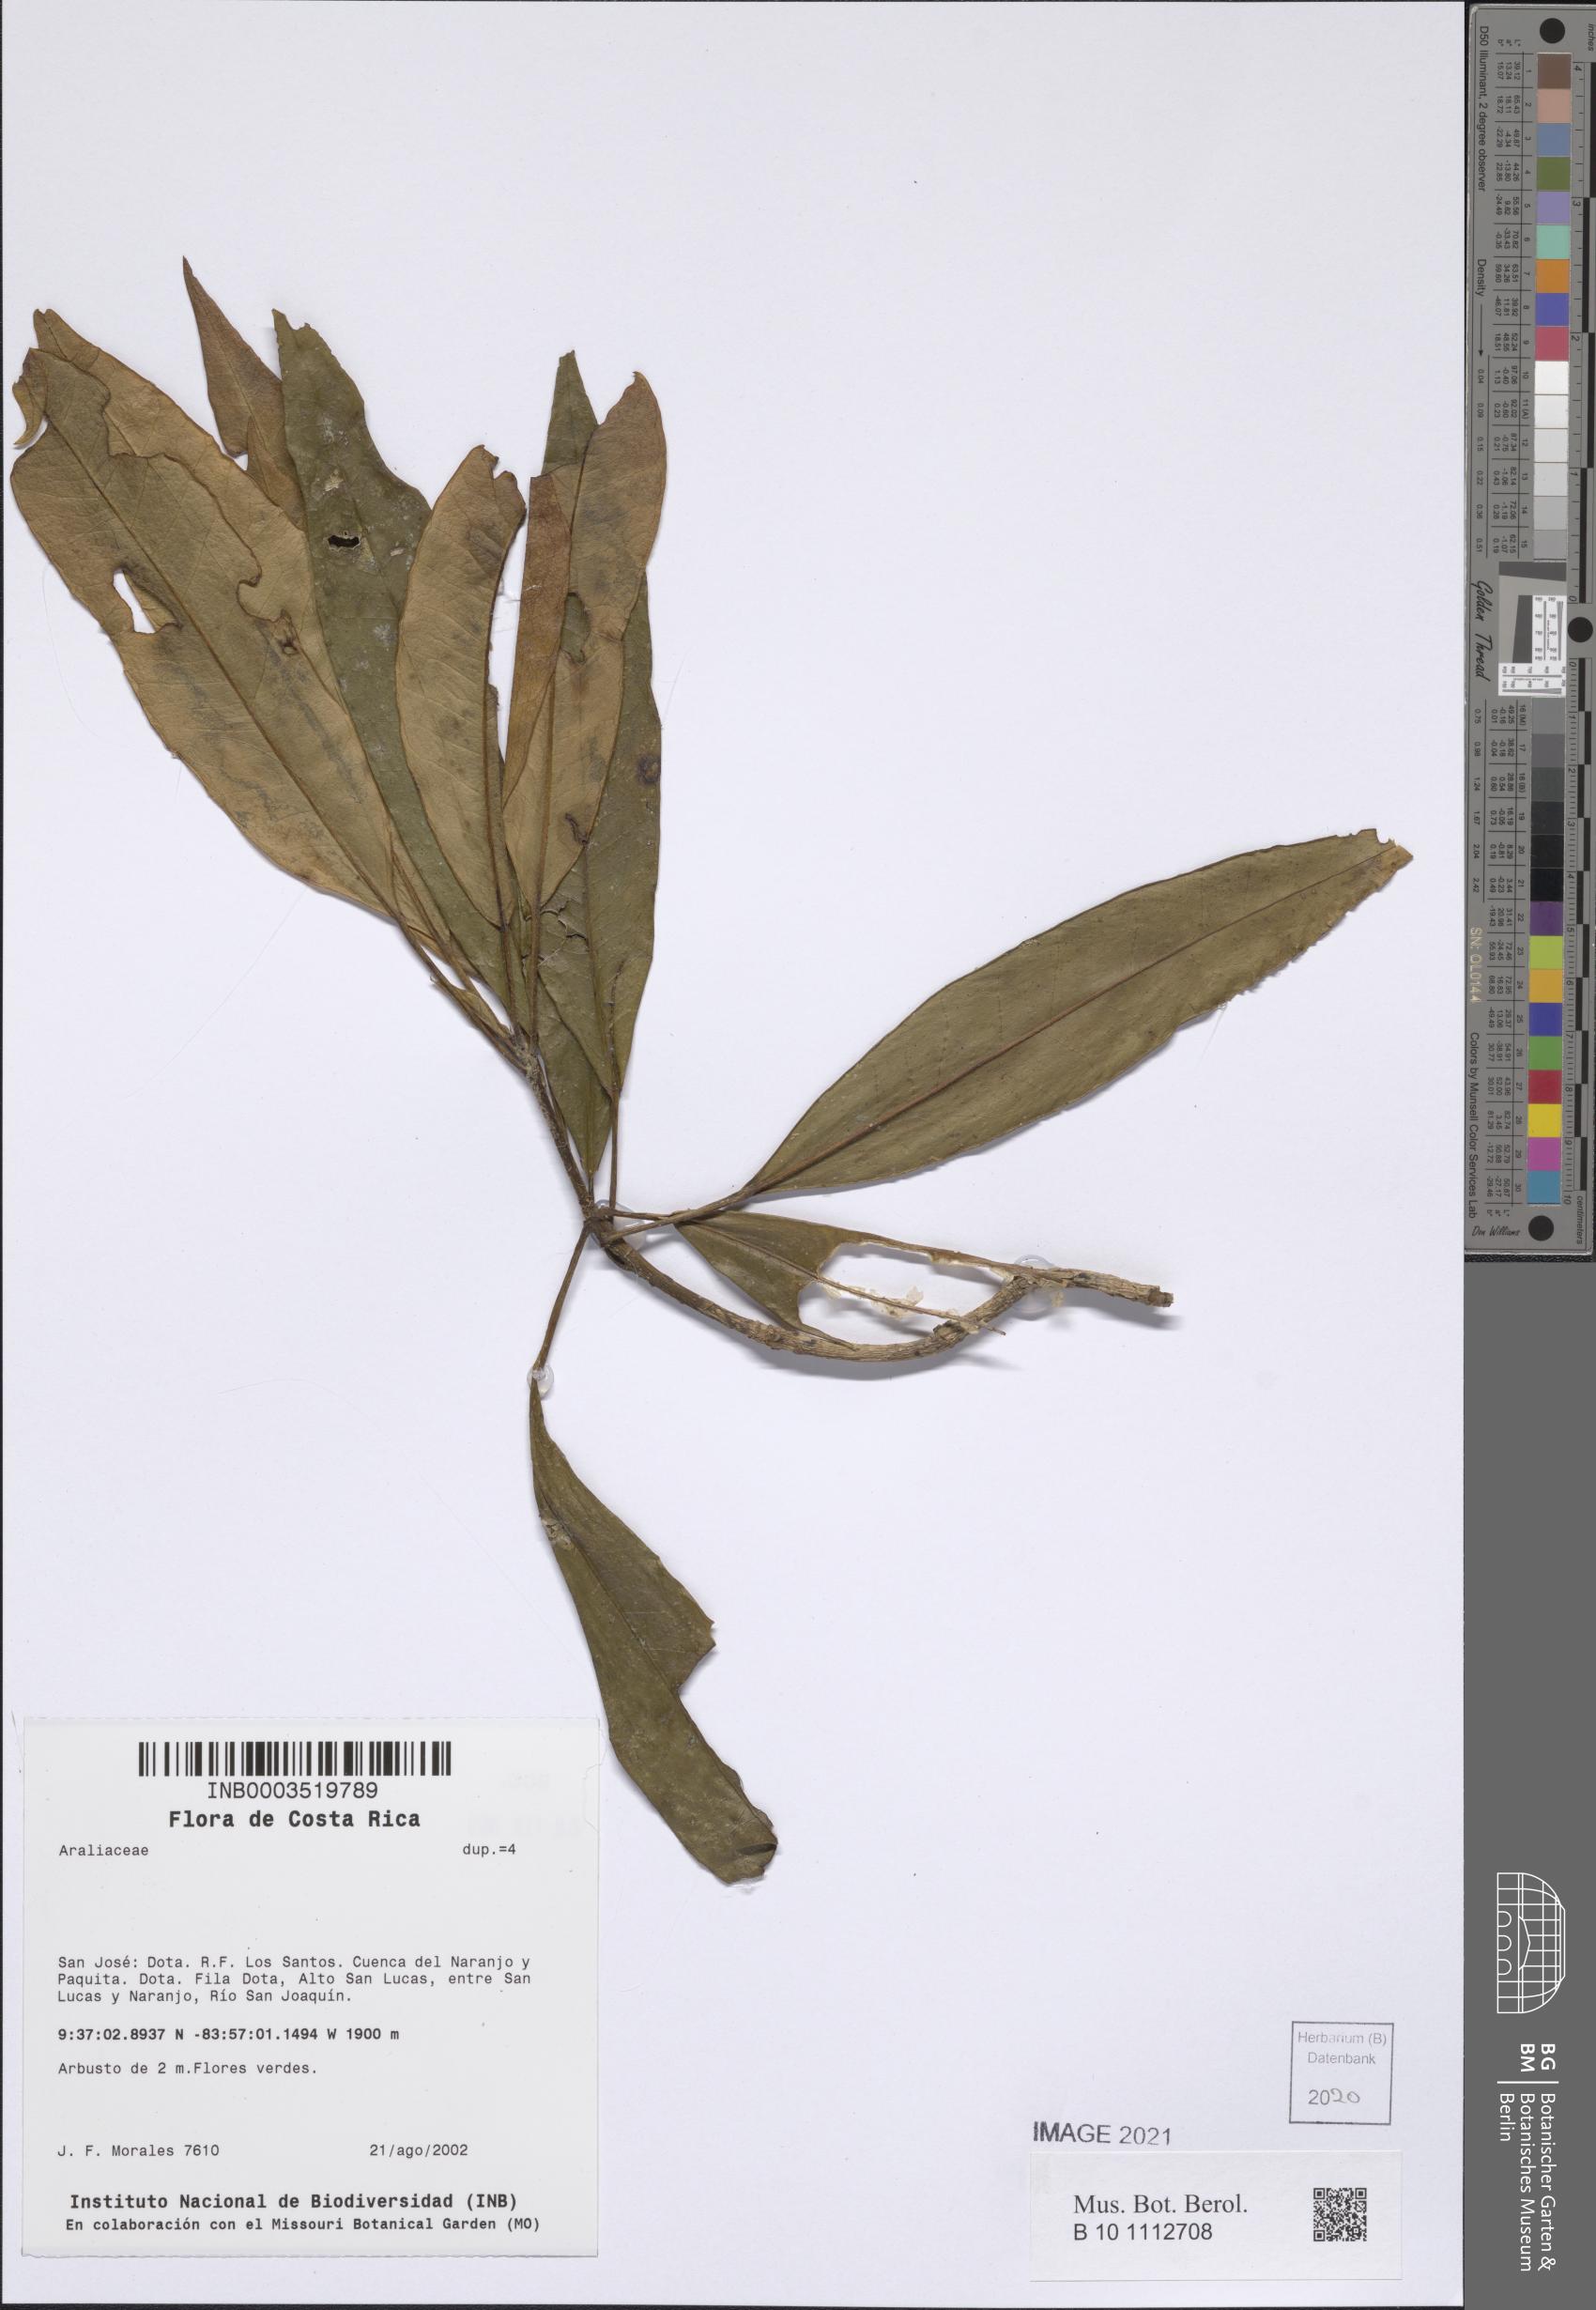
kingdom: Plantae
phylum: Tracheophyta
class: Magnoliopsida
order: Apiales
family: Araliaceae
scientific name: Araliaceae
